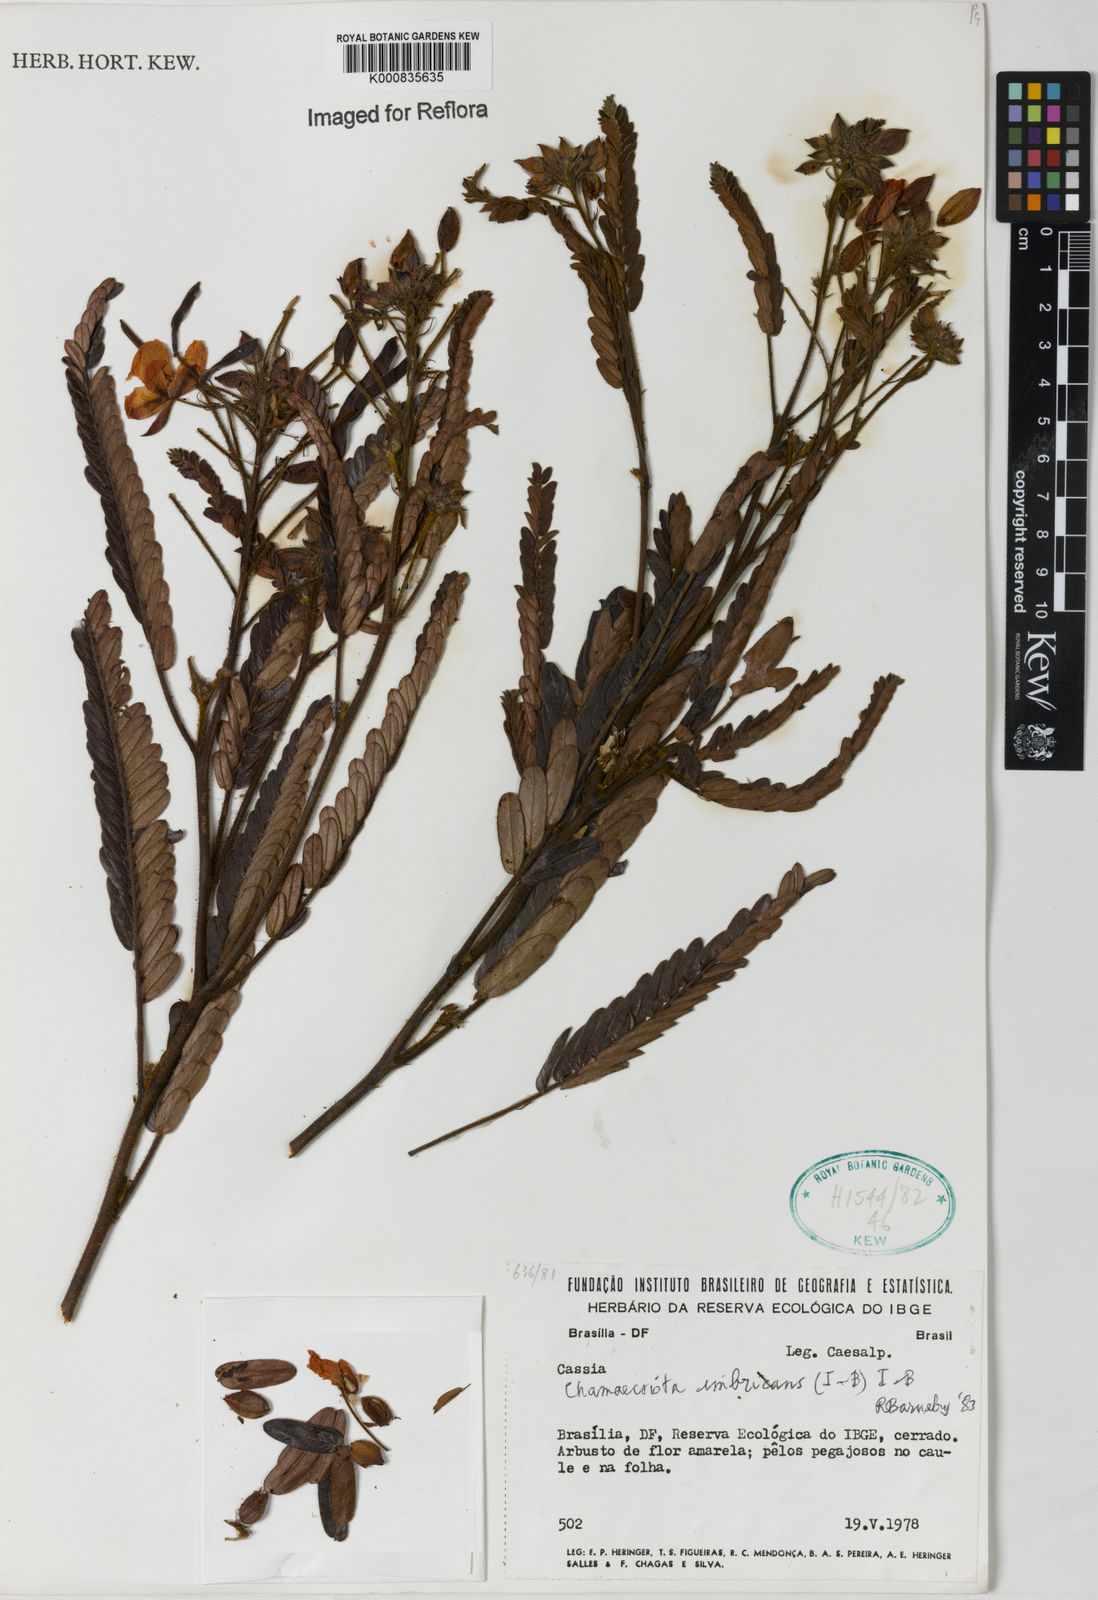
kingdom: Plantae
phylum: Tracheophyta
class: Magnoliopsida
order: Fabales
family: Fabaceae
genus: Chamaecrista
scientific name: Chamaecrista imbricans
